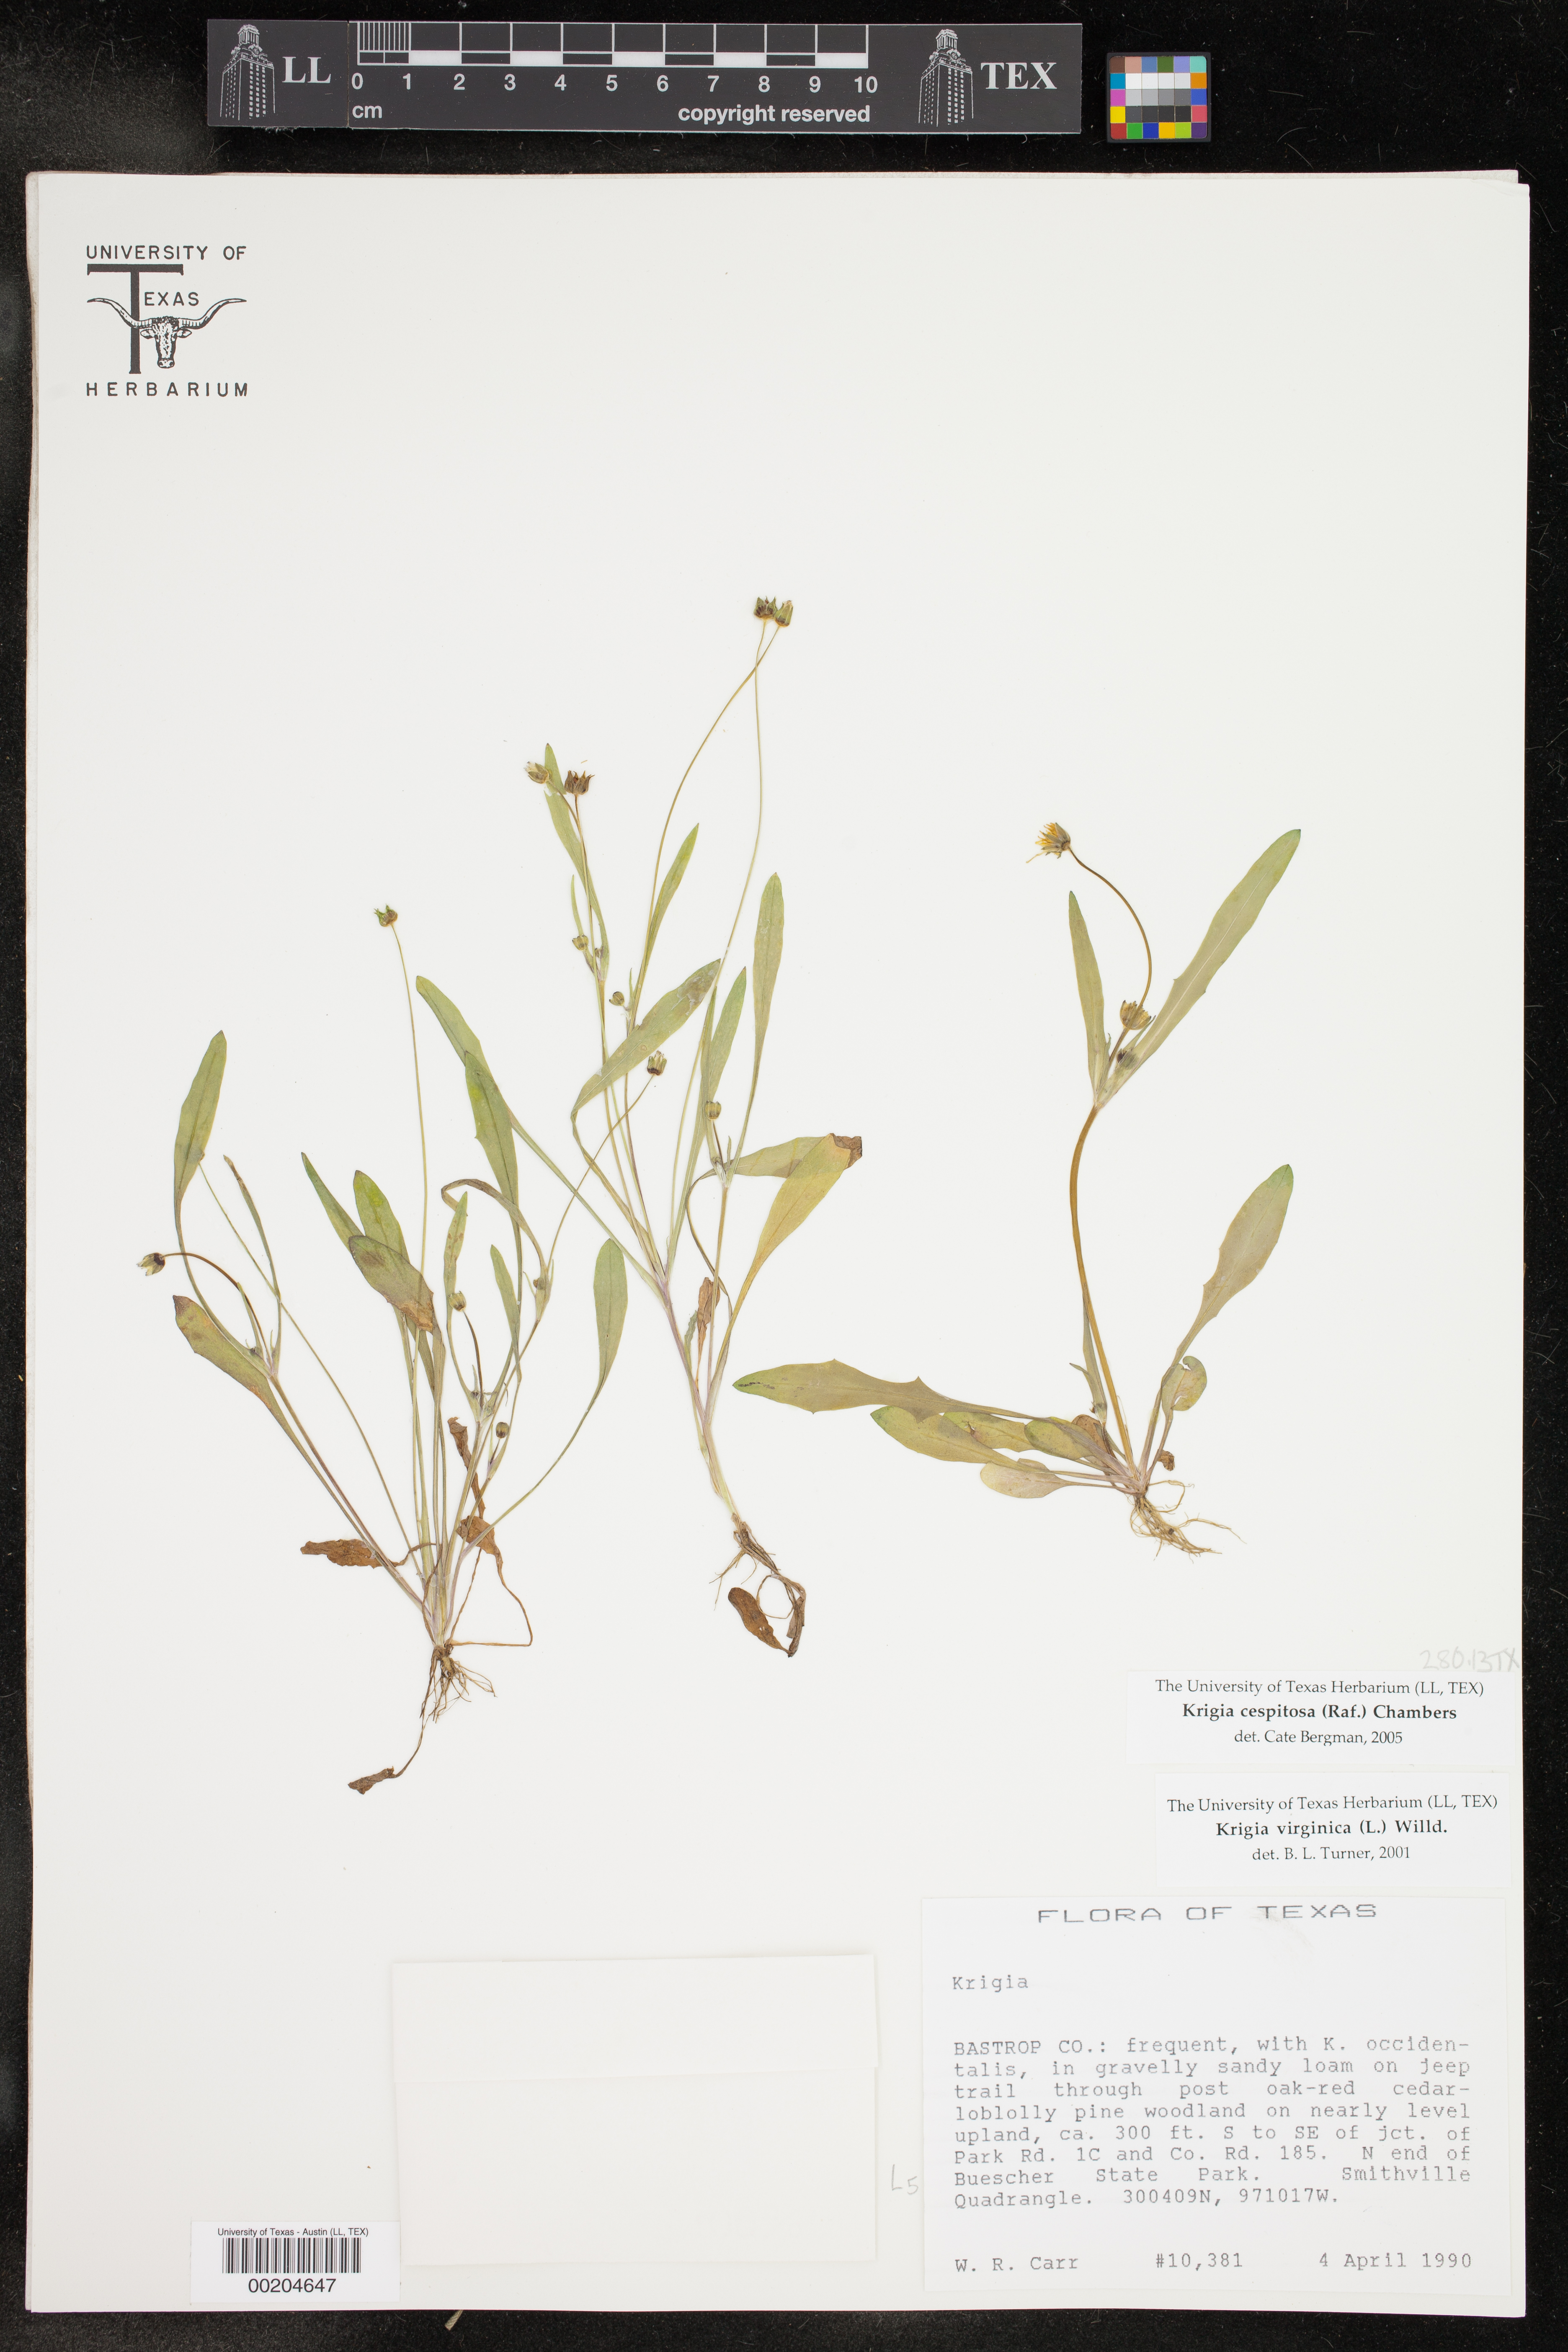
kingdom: Plantae
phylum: Tracheophyta
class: Magnoliopsida
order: Asterales
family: Asteraceae
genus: Krigia
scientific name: Krigia cespitosa
